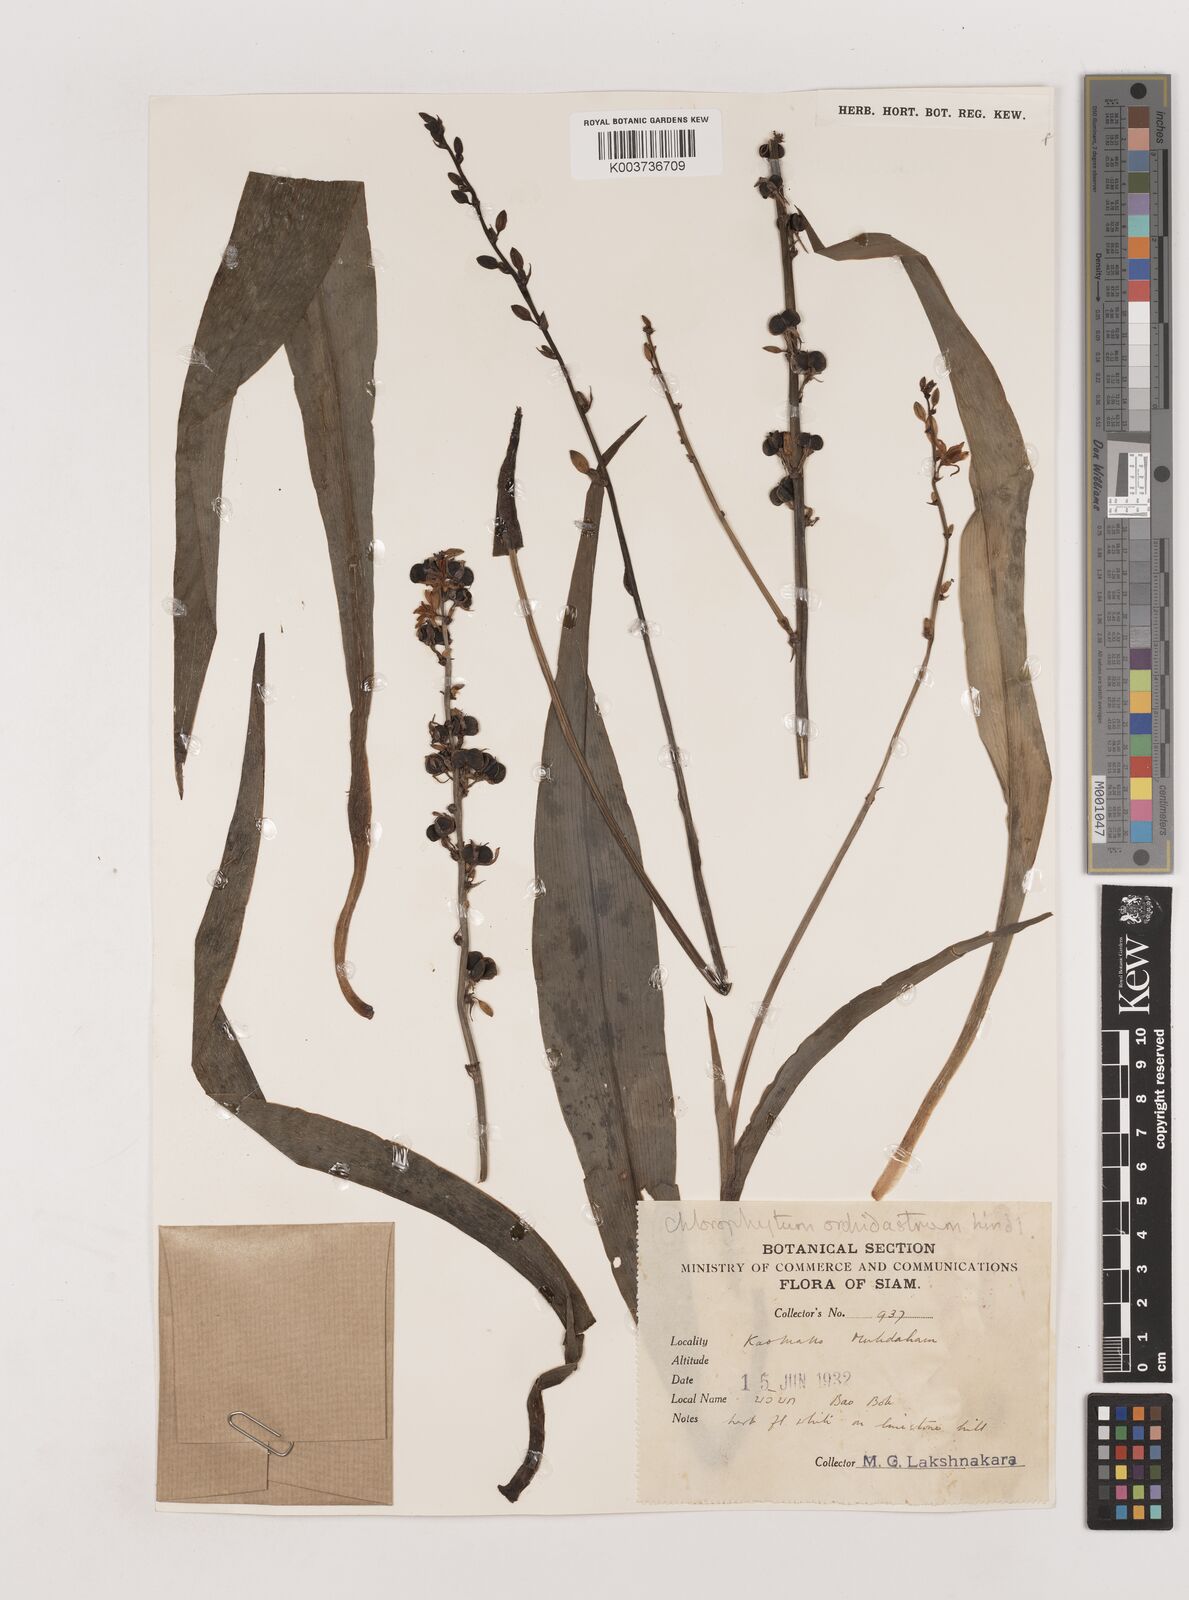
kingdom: Plantae
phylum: Tracheophyta
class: Liliopsida
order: Asparagales
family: Asparagaceae
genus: Chlorophytum
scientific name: Chlorophytum orchidastrum
